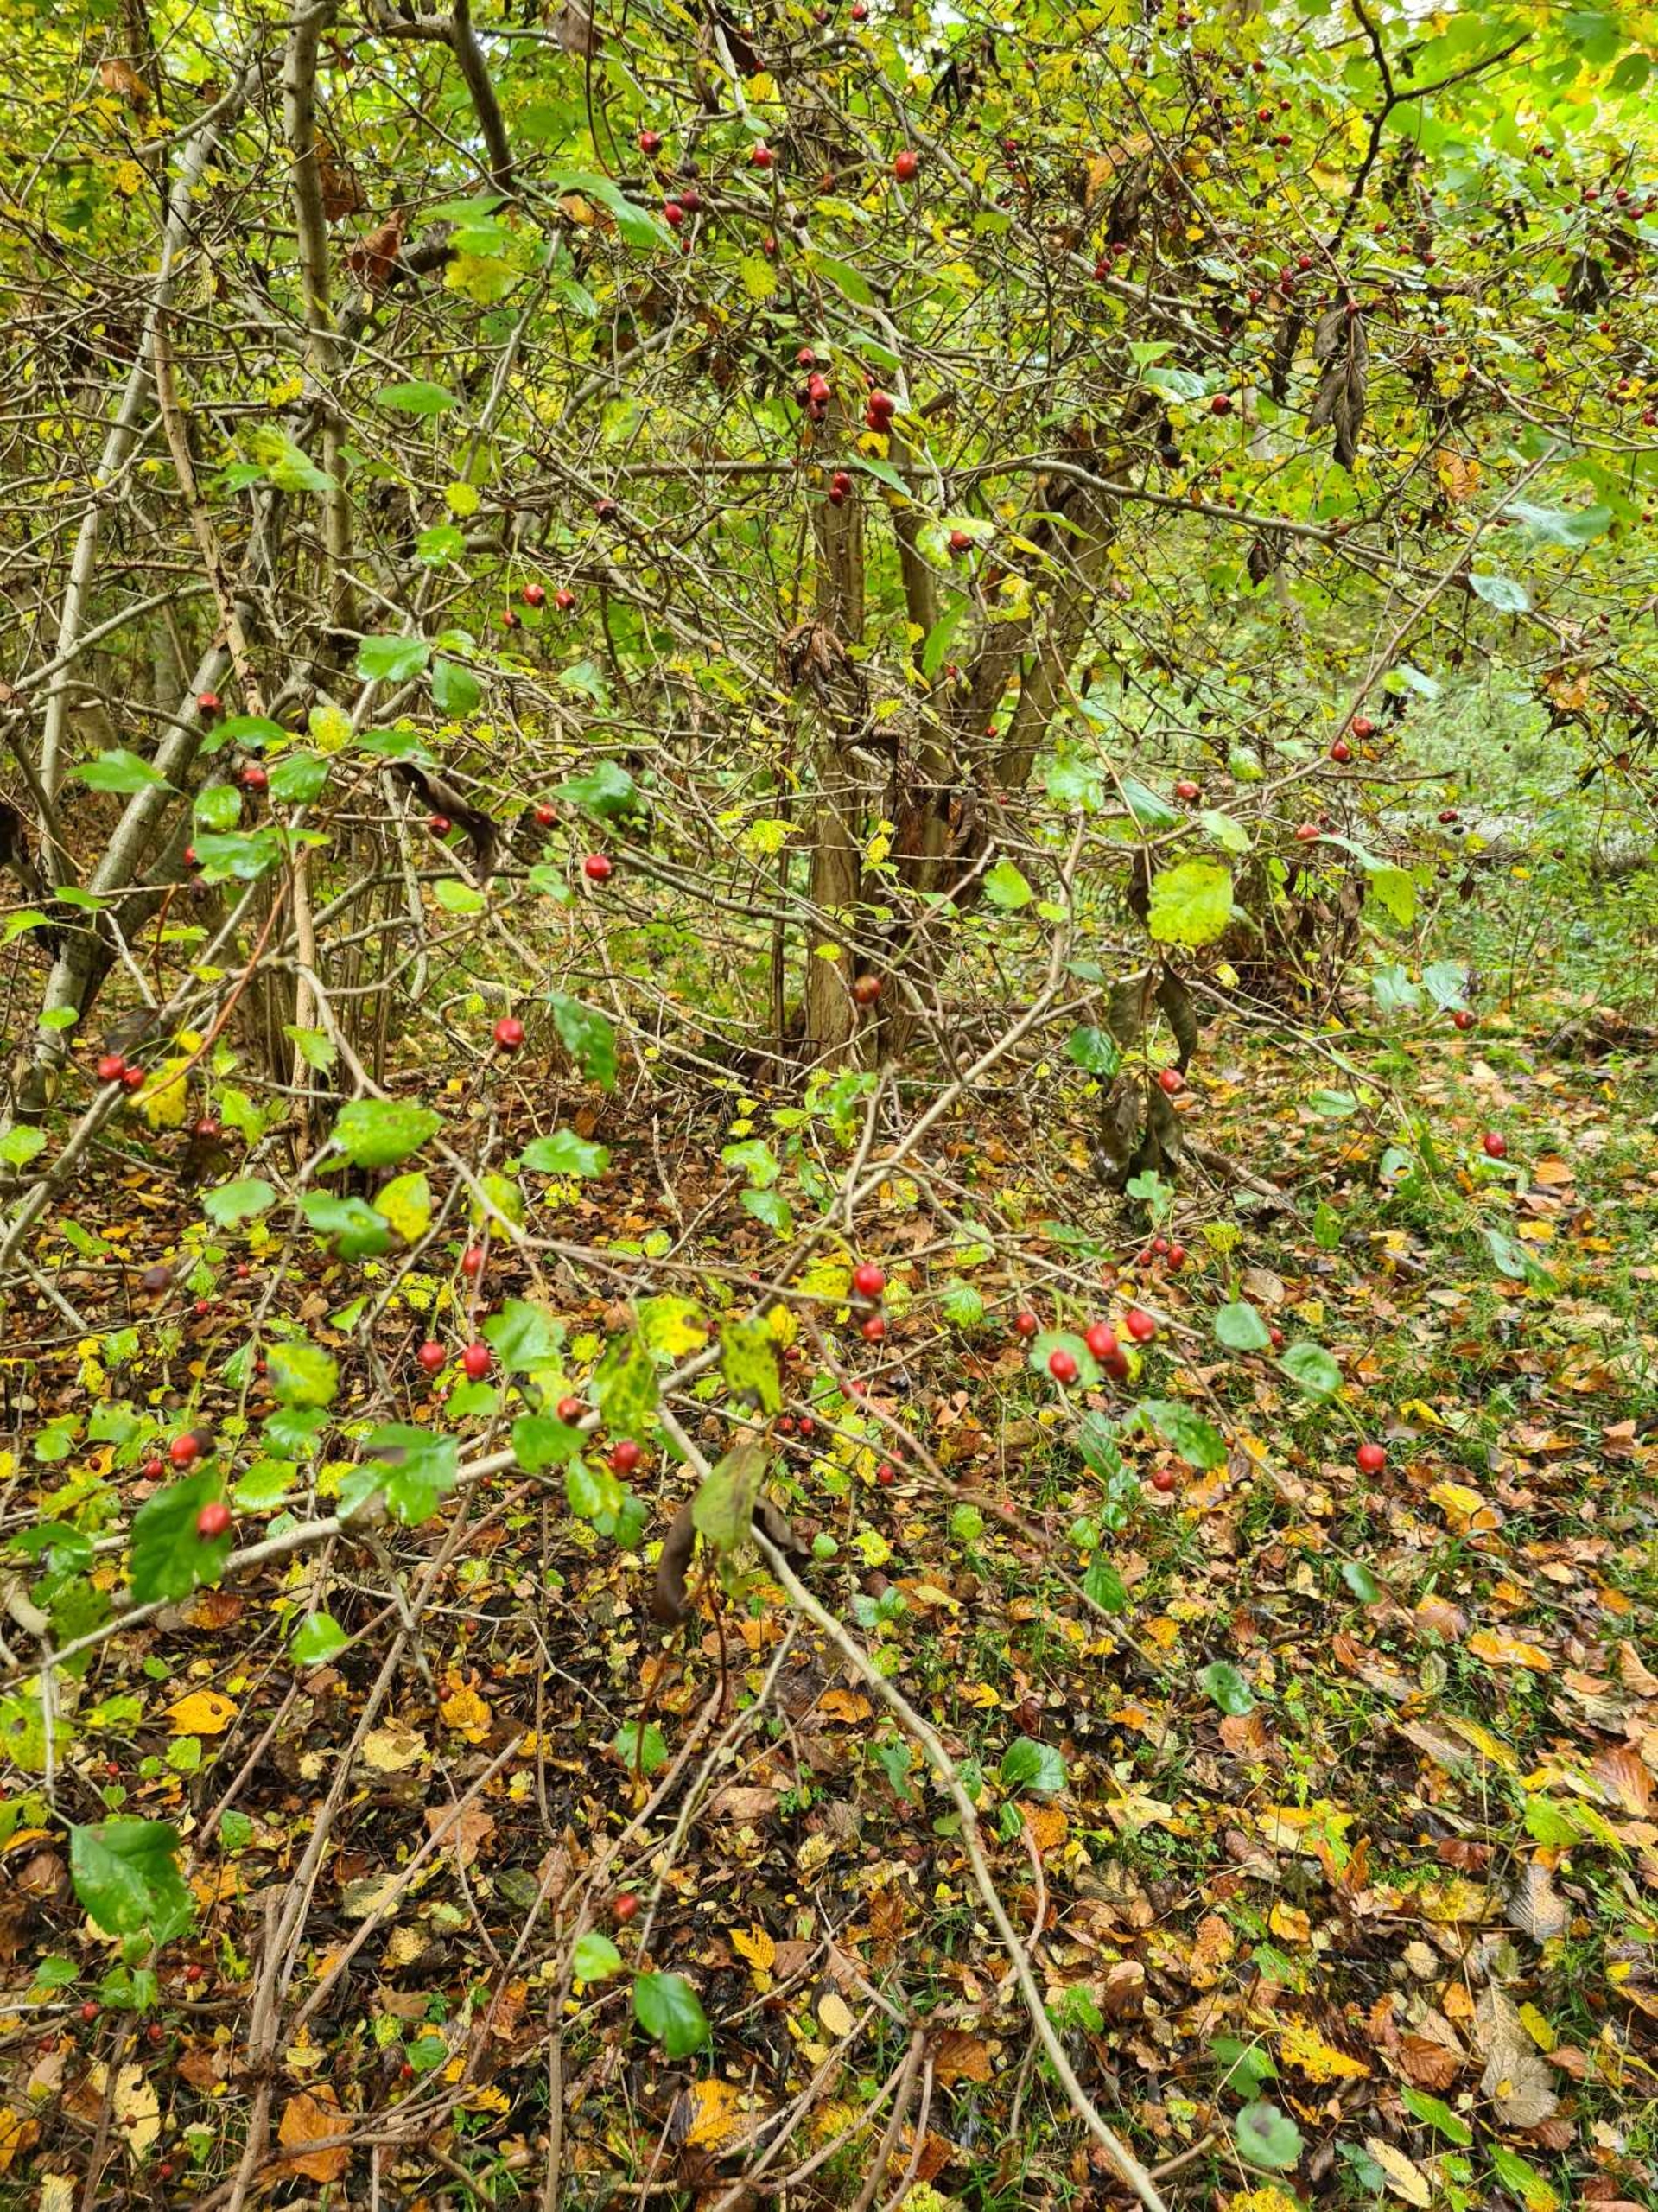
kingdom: Plantae
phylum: Tracheophyta
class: Magnoliopsida
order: Rosales
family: Rosaceae
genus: Crataegus
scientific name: Crataegus laevigata
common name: Almindelig hvidtjørn
